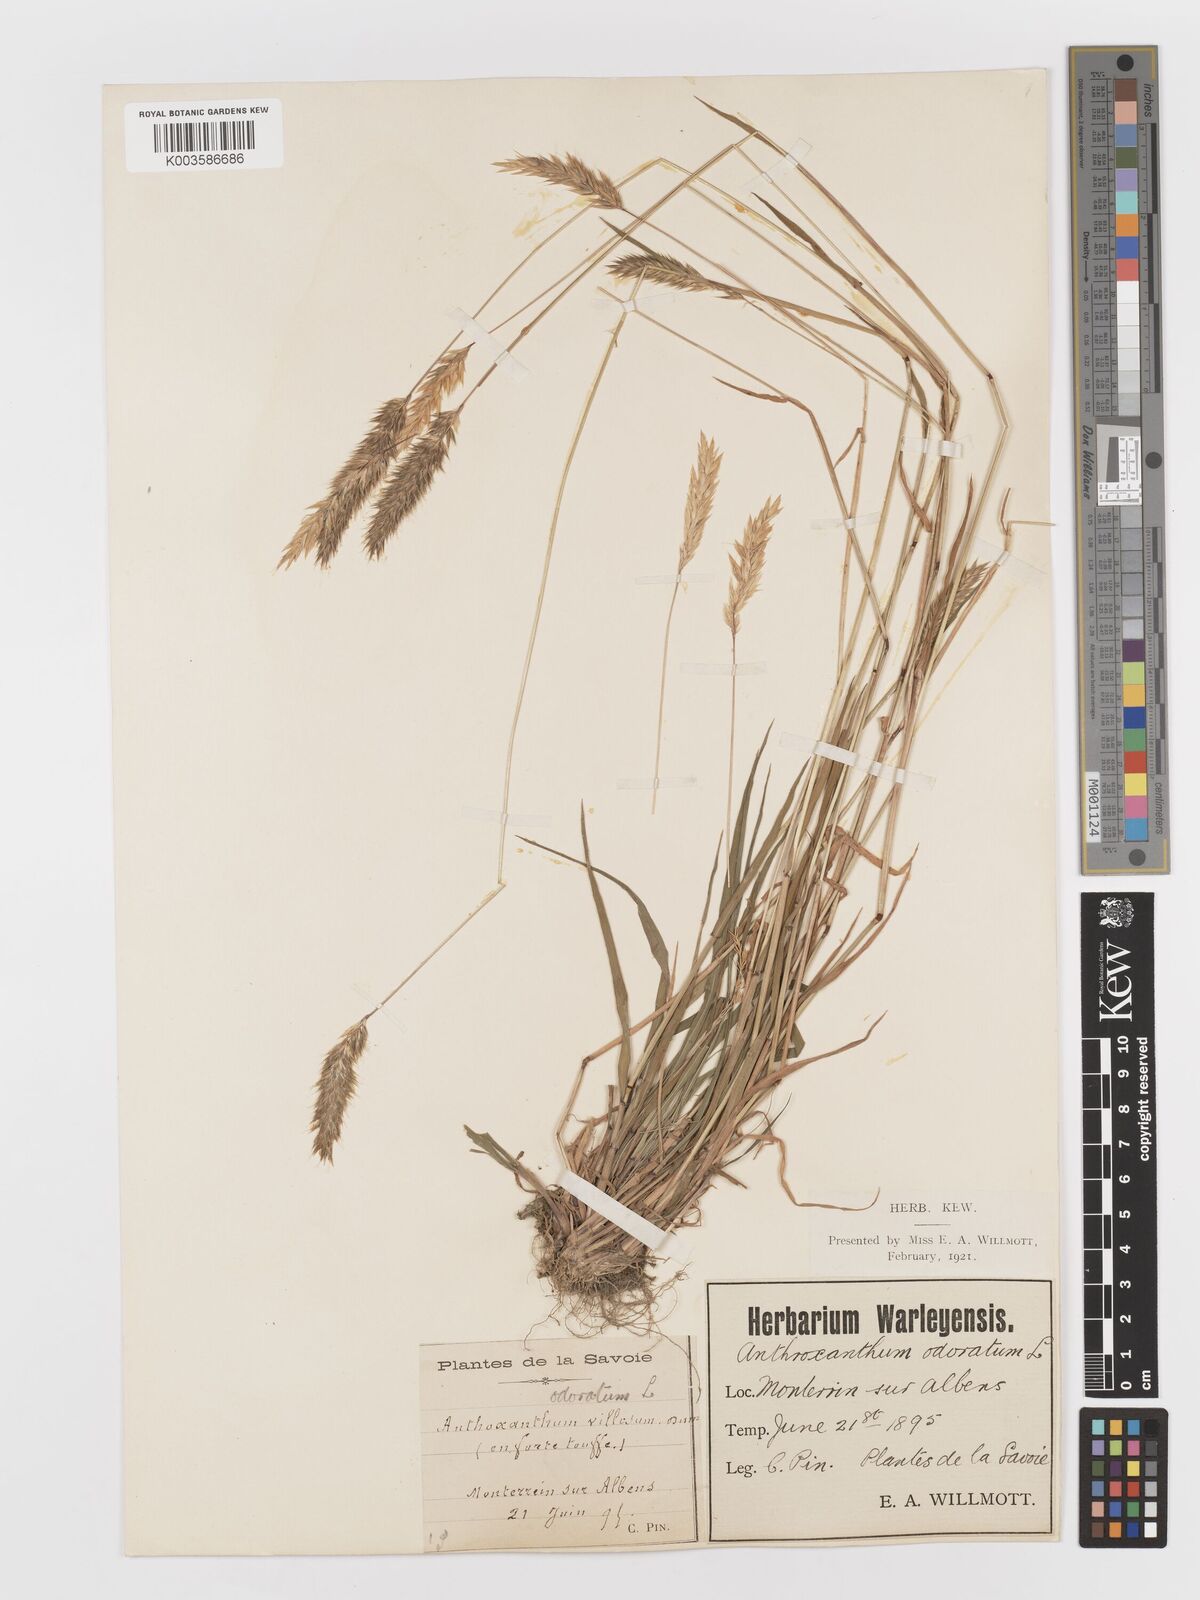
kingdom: Plantae
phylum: Tracheophyta
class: Liliopsida
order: Poales
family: Poaceae
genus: Anthoxanthum
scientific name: Anthoxanthum odoratum
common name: Sweet vernalgrass
